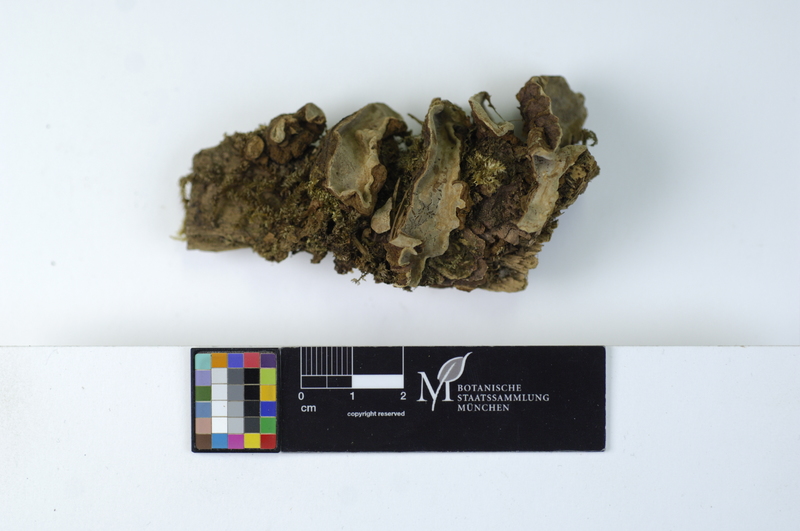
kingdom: Fungi
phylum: Basidiomycota
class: Agaricomycetes
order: Russulales
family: Echinodontiaceae
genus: Amylostereum
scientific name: Amylostereum areolatum
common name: White rot fungus
